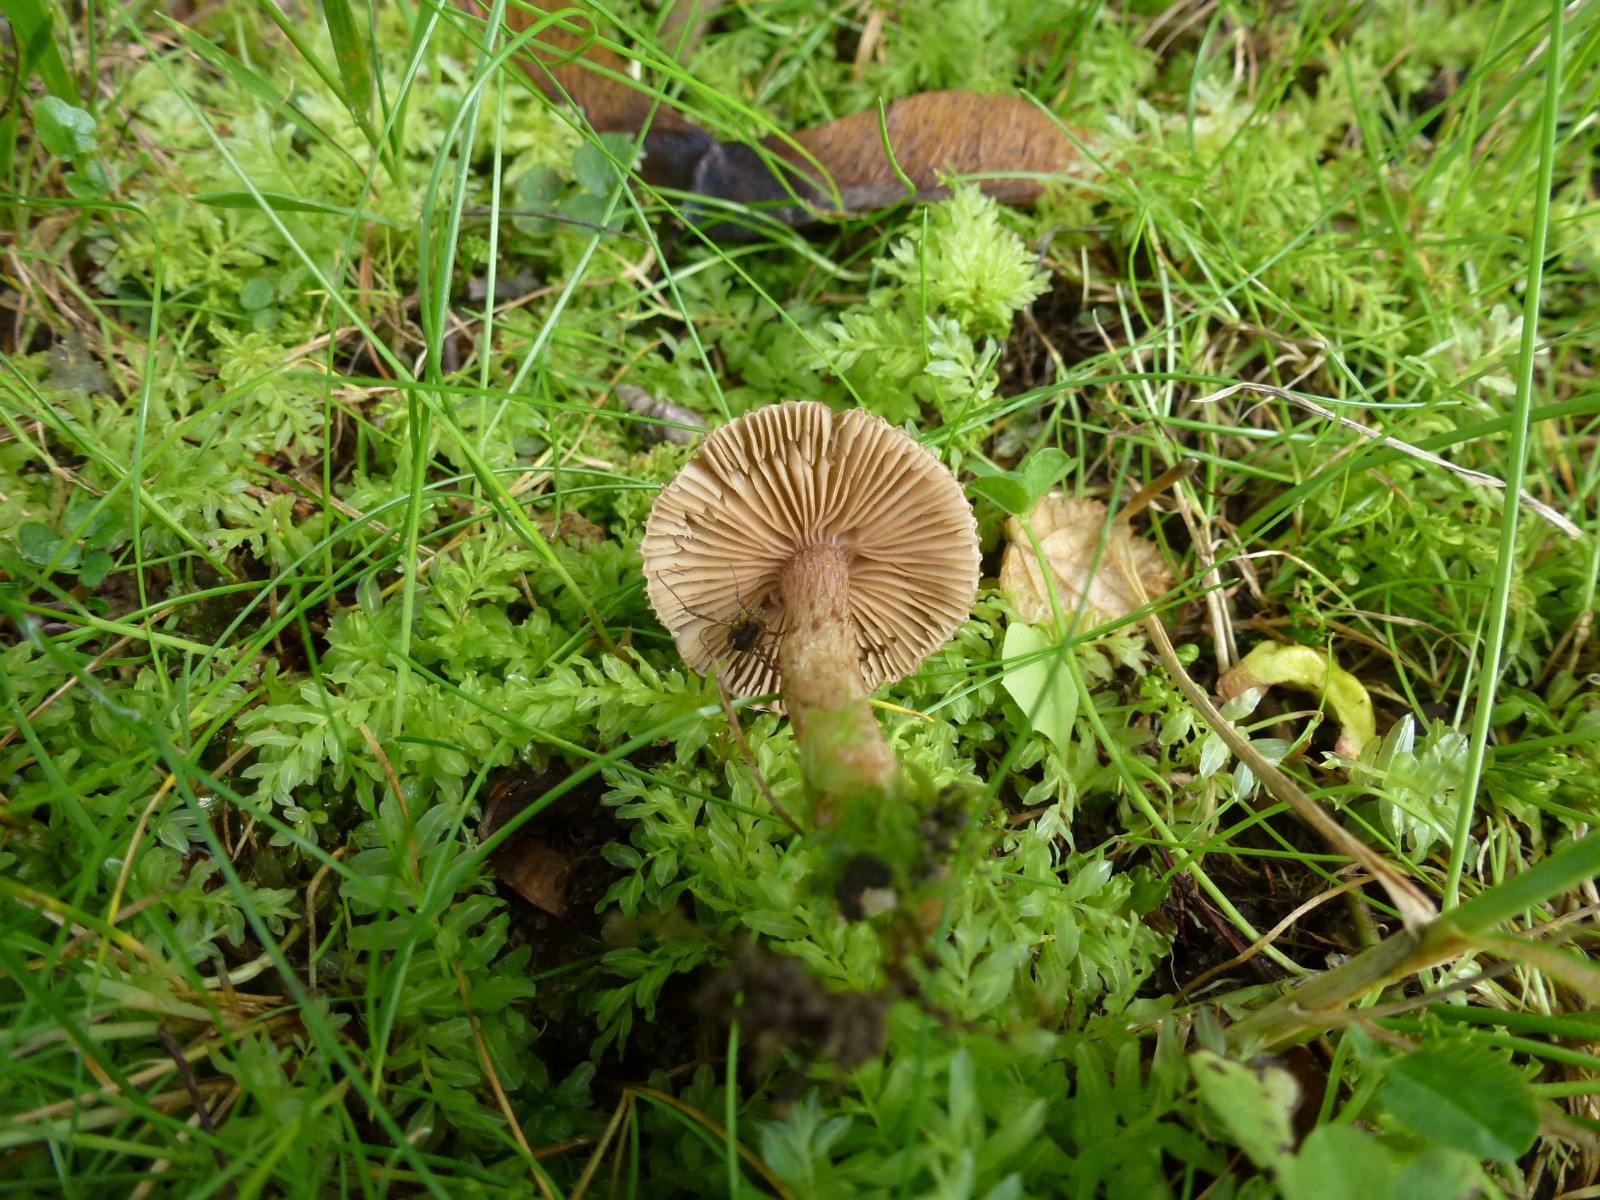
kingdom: Fungi
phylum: Basidiomycota
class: Agaricomycetes
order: Agaricales
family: Inocybaceae
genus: Inocybe
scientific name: Inocybe
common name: trævlhat
